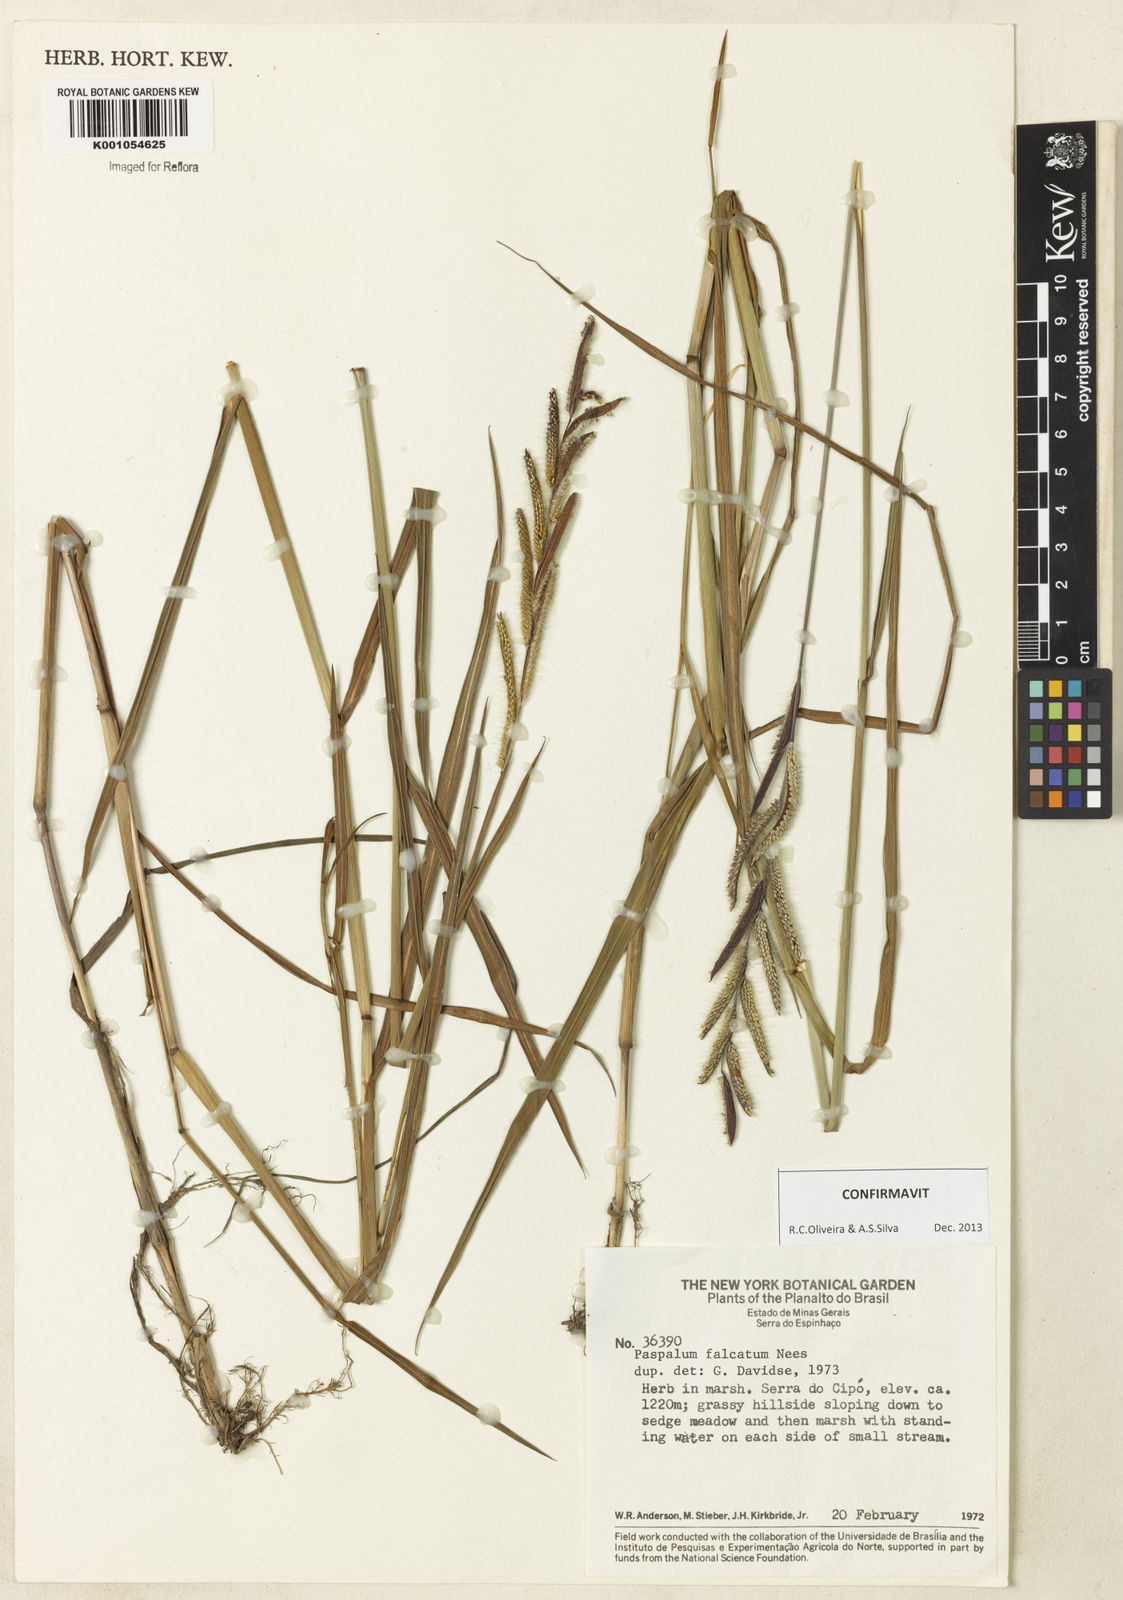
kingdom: Plantae
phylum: Tracheophyta
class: Liliopsida
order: Poales
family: Poaceae
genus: Paspalum
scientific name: Paspalum falcatum
